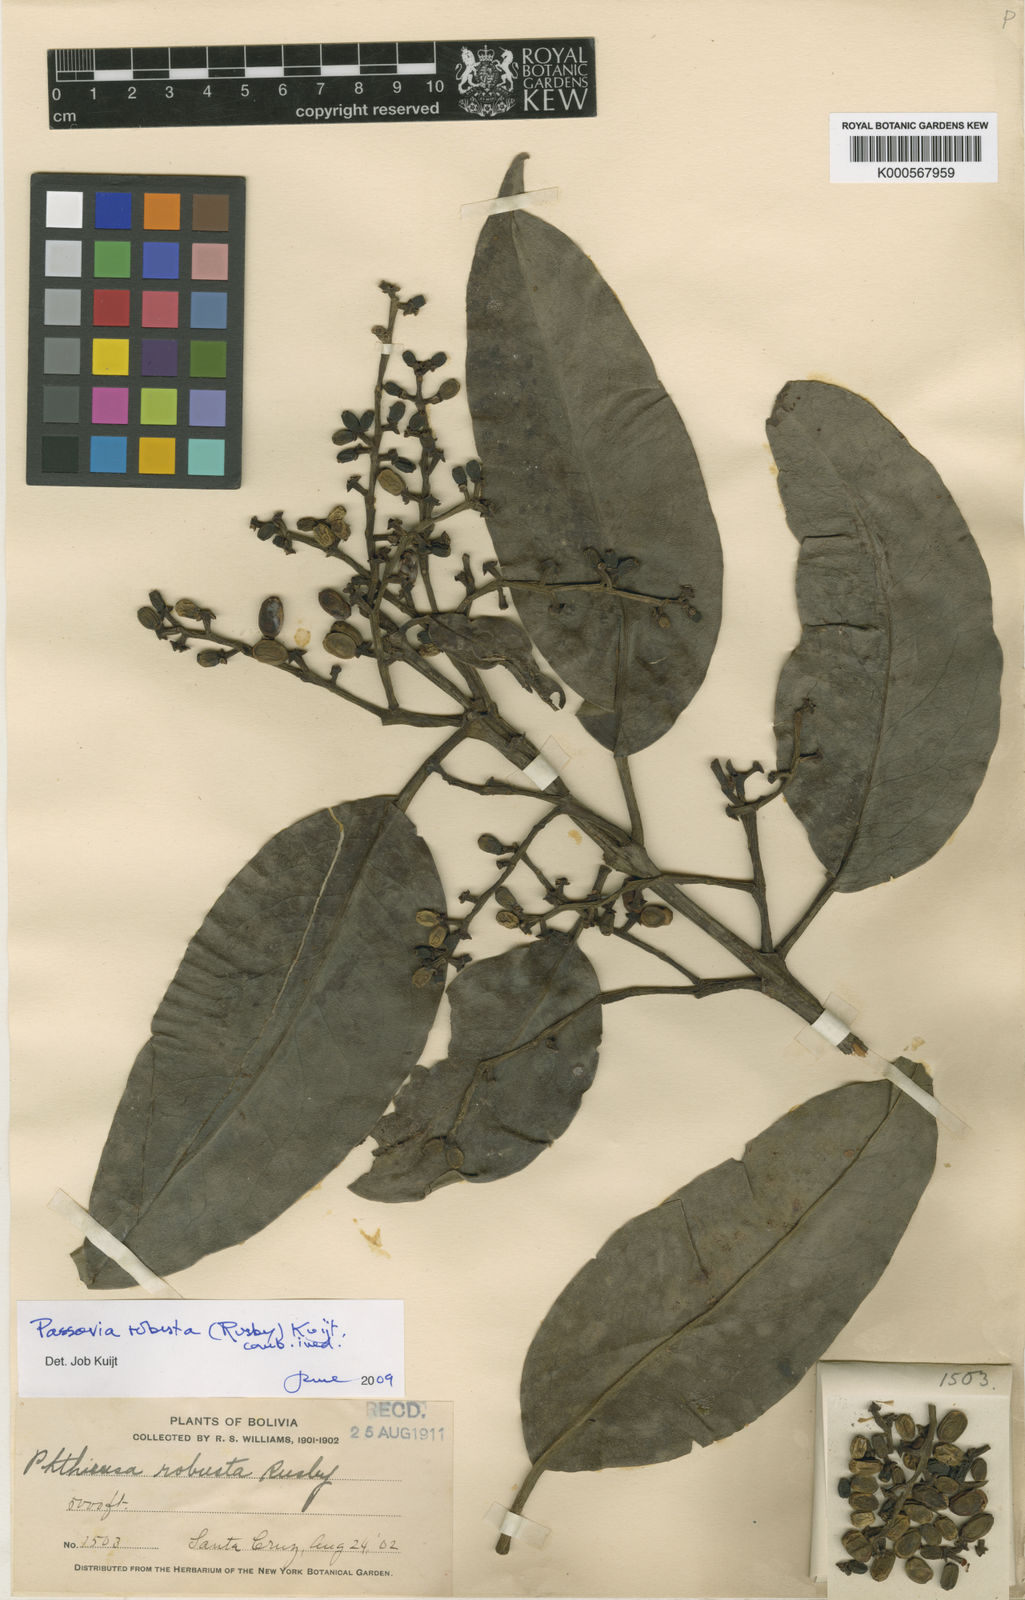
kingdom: Plantae
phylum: Tracheophyta
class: Magnoliopsida
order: Santalales
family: Loranthaceae
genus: Passovia
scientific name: Passovia pedunculata
